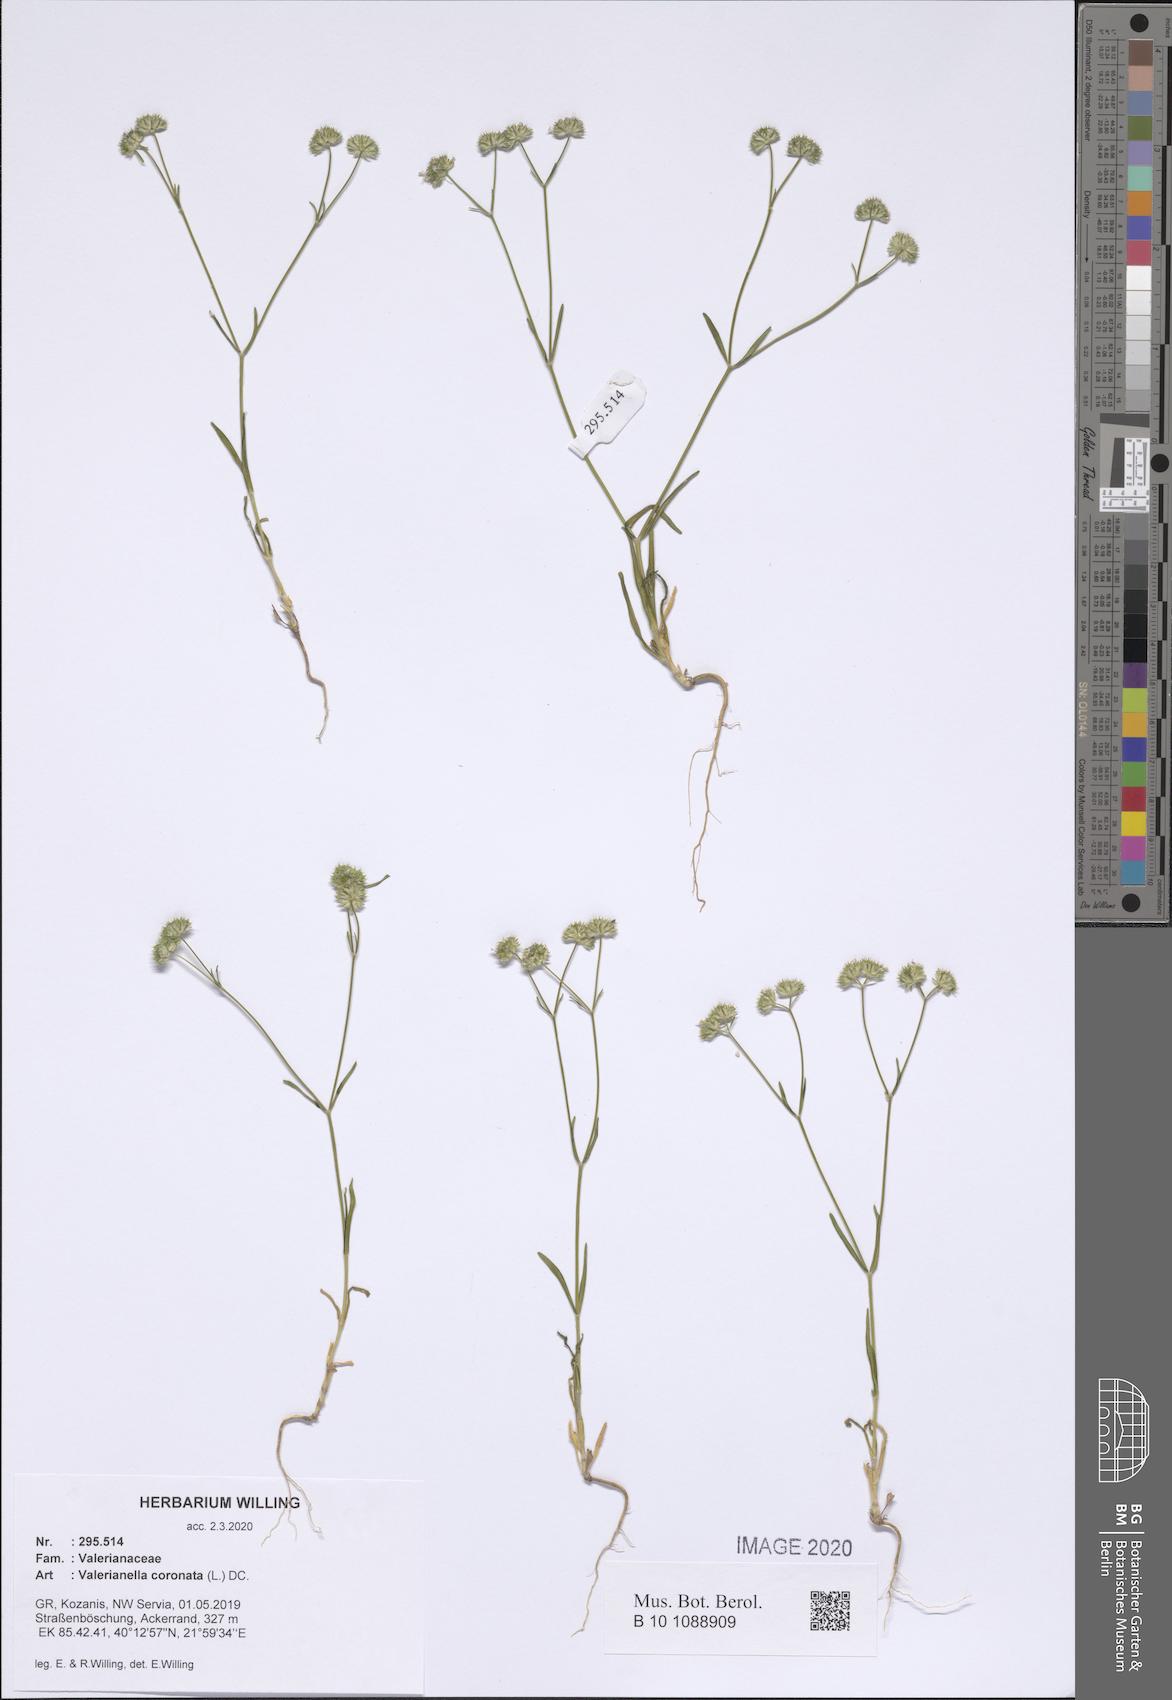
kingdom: Plantae
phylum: Tracheophyta
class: Magnoliopsida
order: Dipsacales
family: Caprifoliaceae
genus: Valerianella
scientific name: Valerianella coronata
